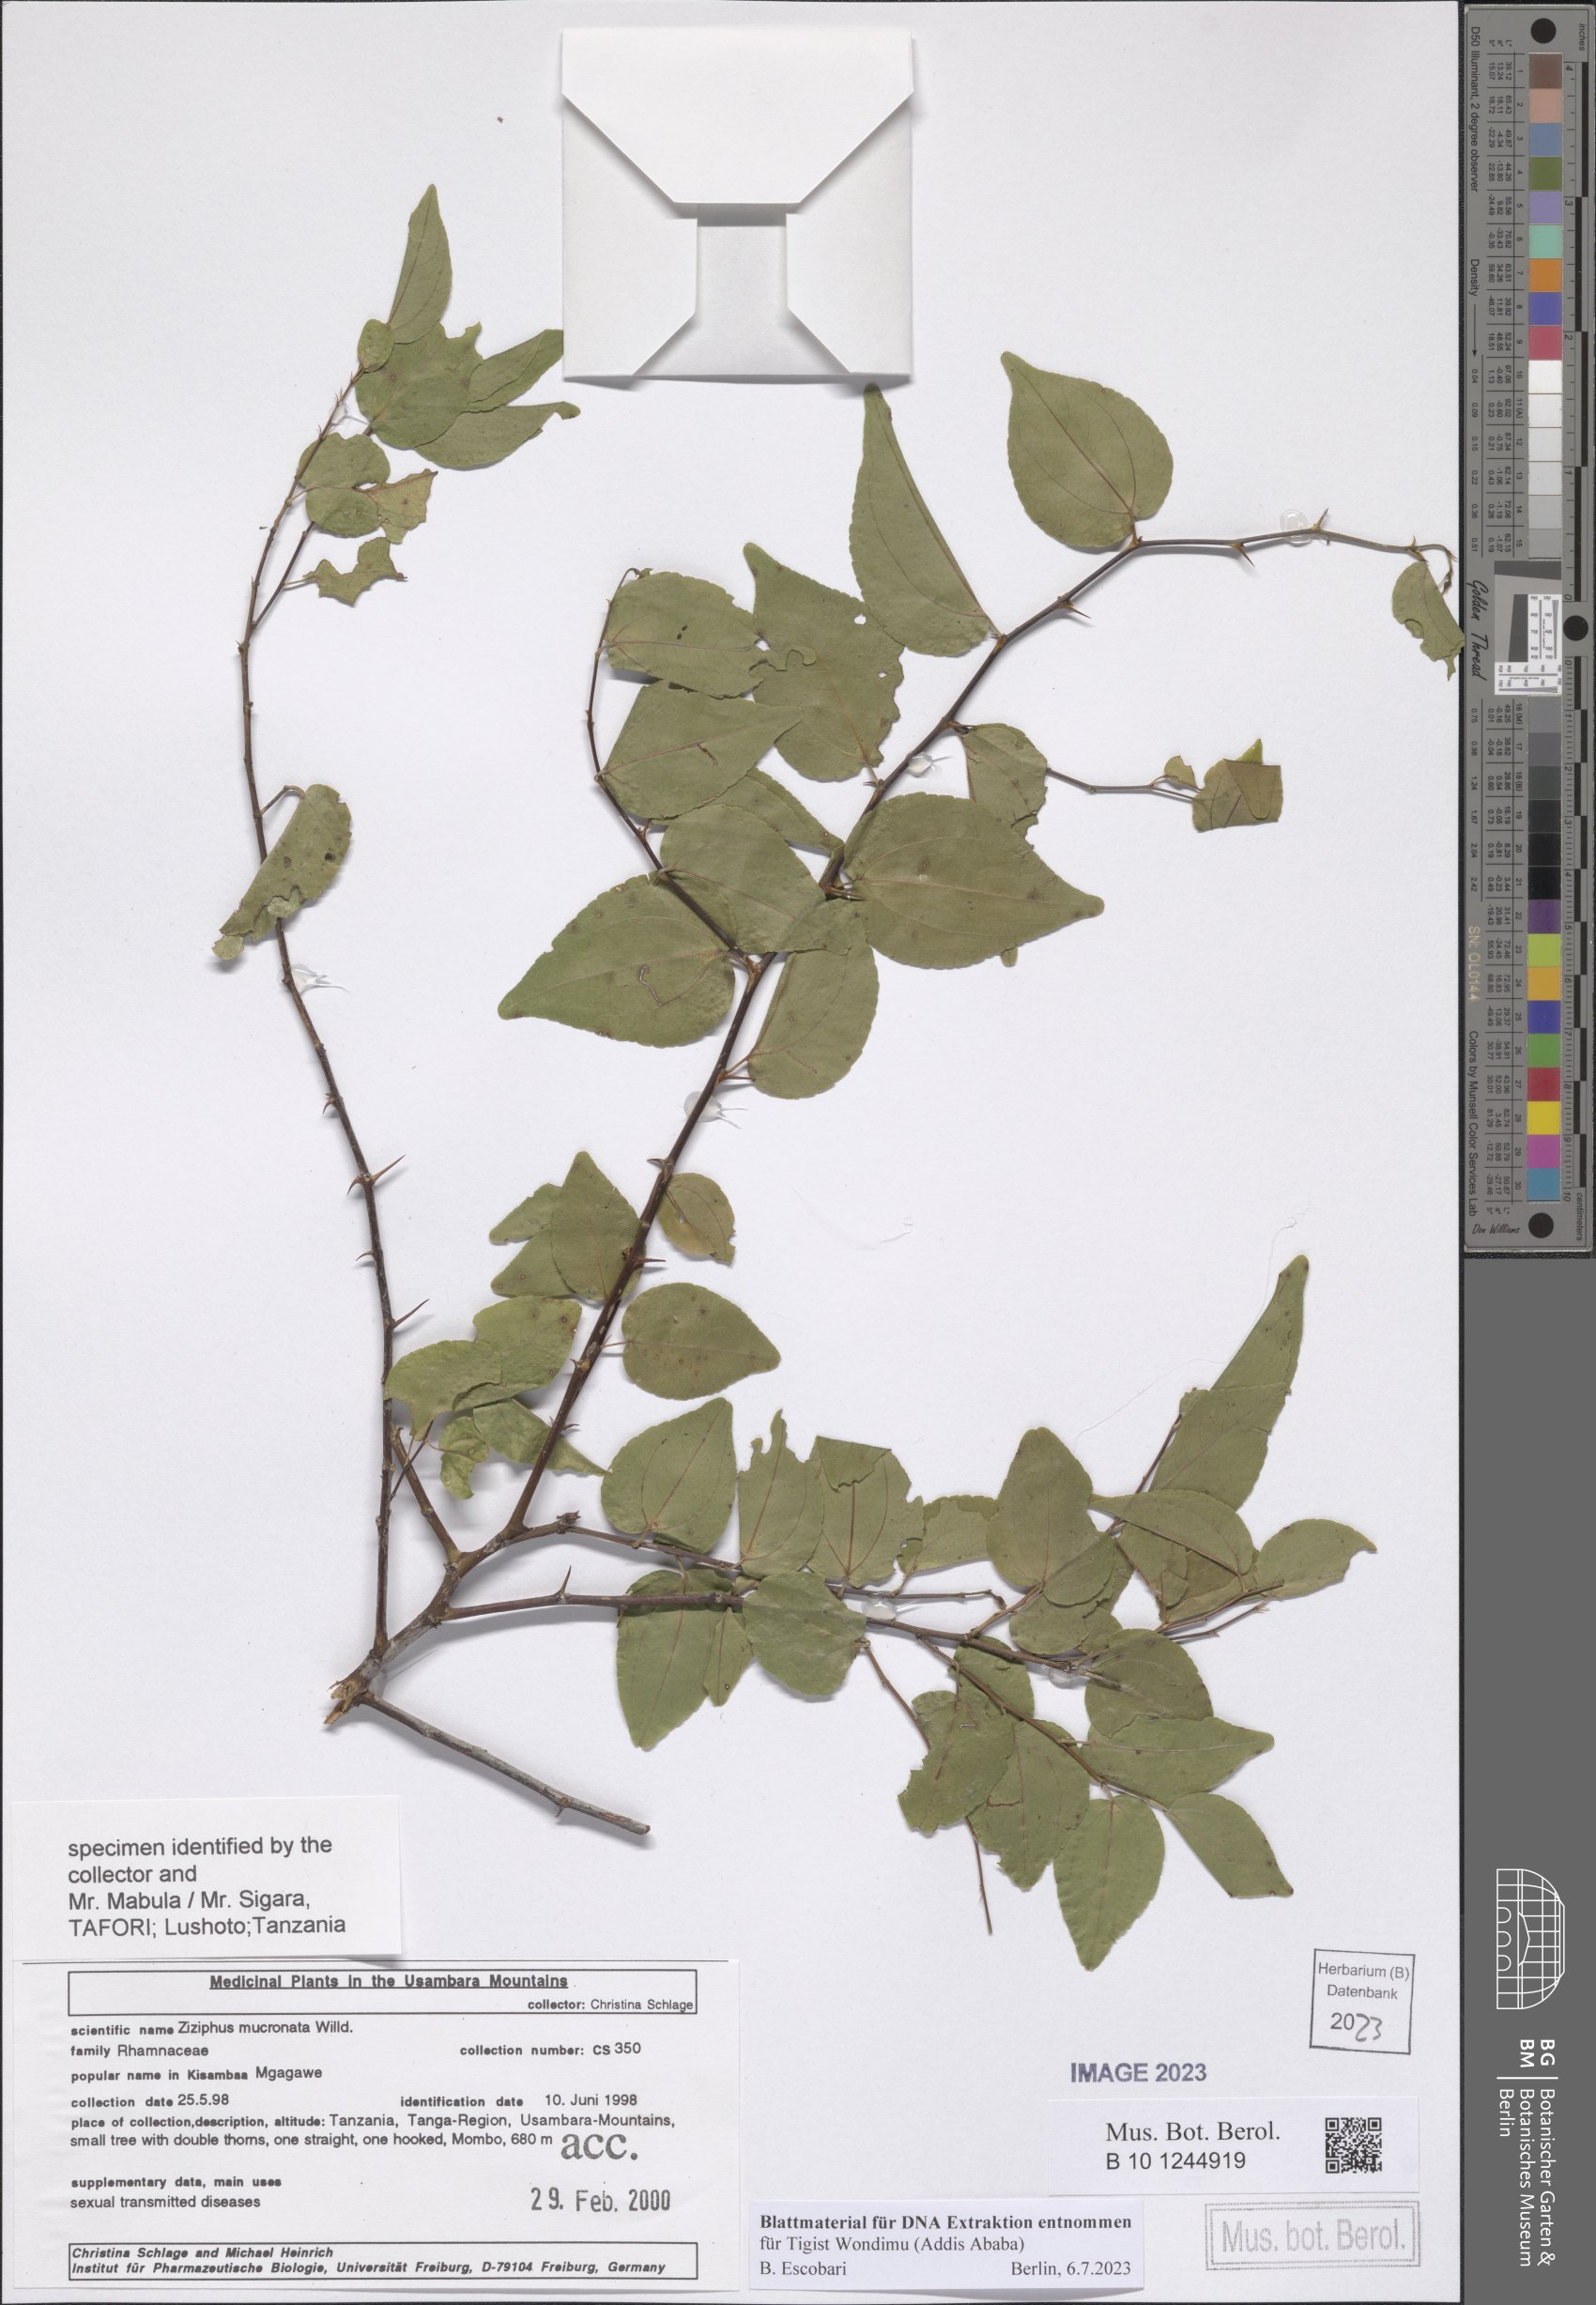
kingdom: Plantae
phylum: Tracheophyta
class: Magnoliopsida
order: Rosales
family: Rhamnaceae
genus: Ziziphus
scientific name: Ziziphus mucronata
